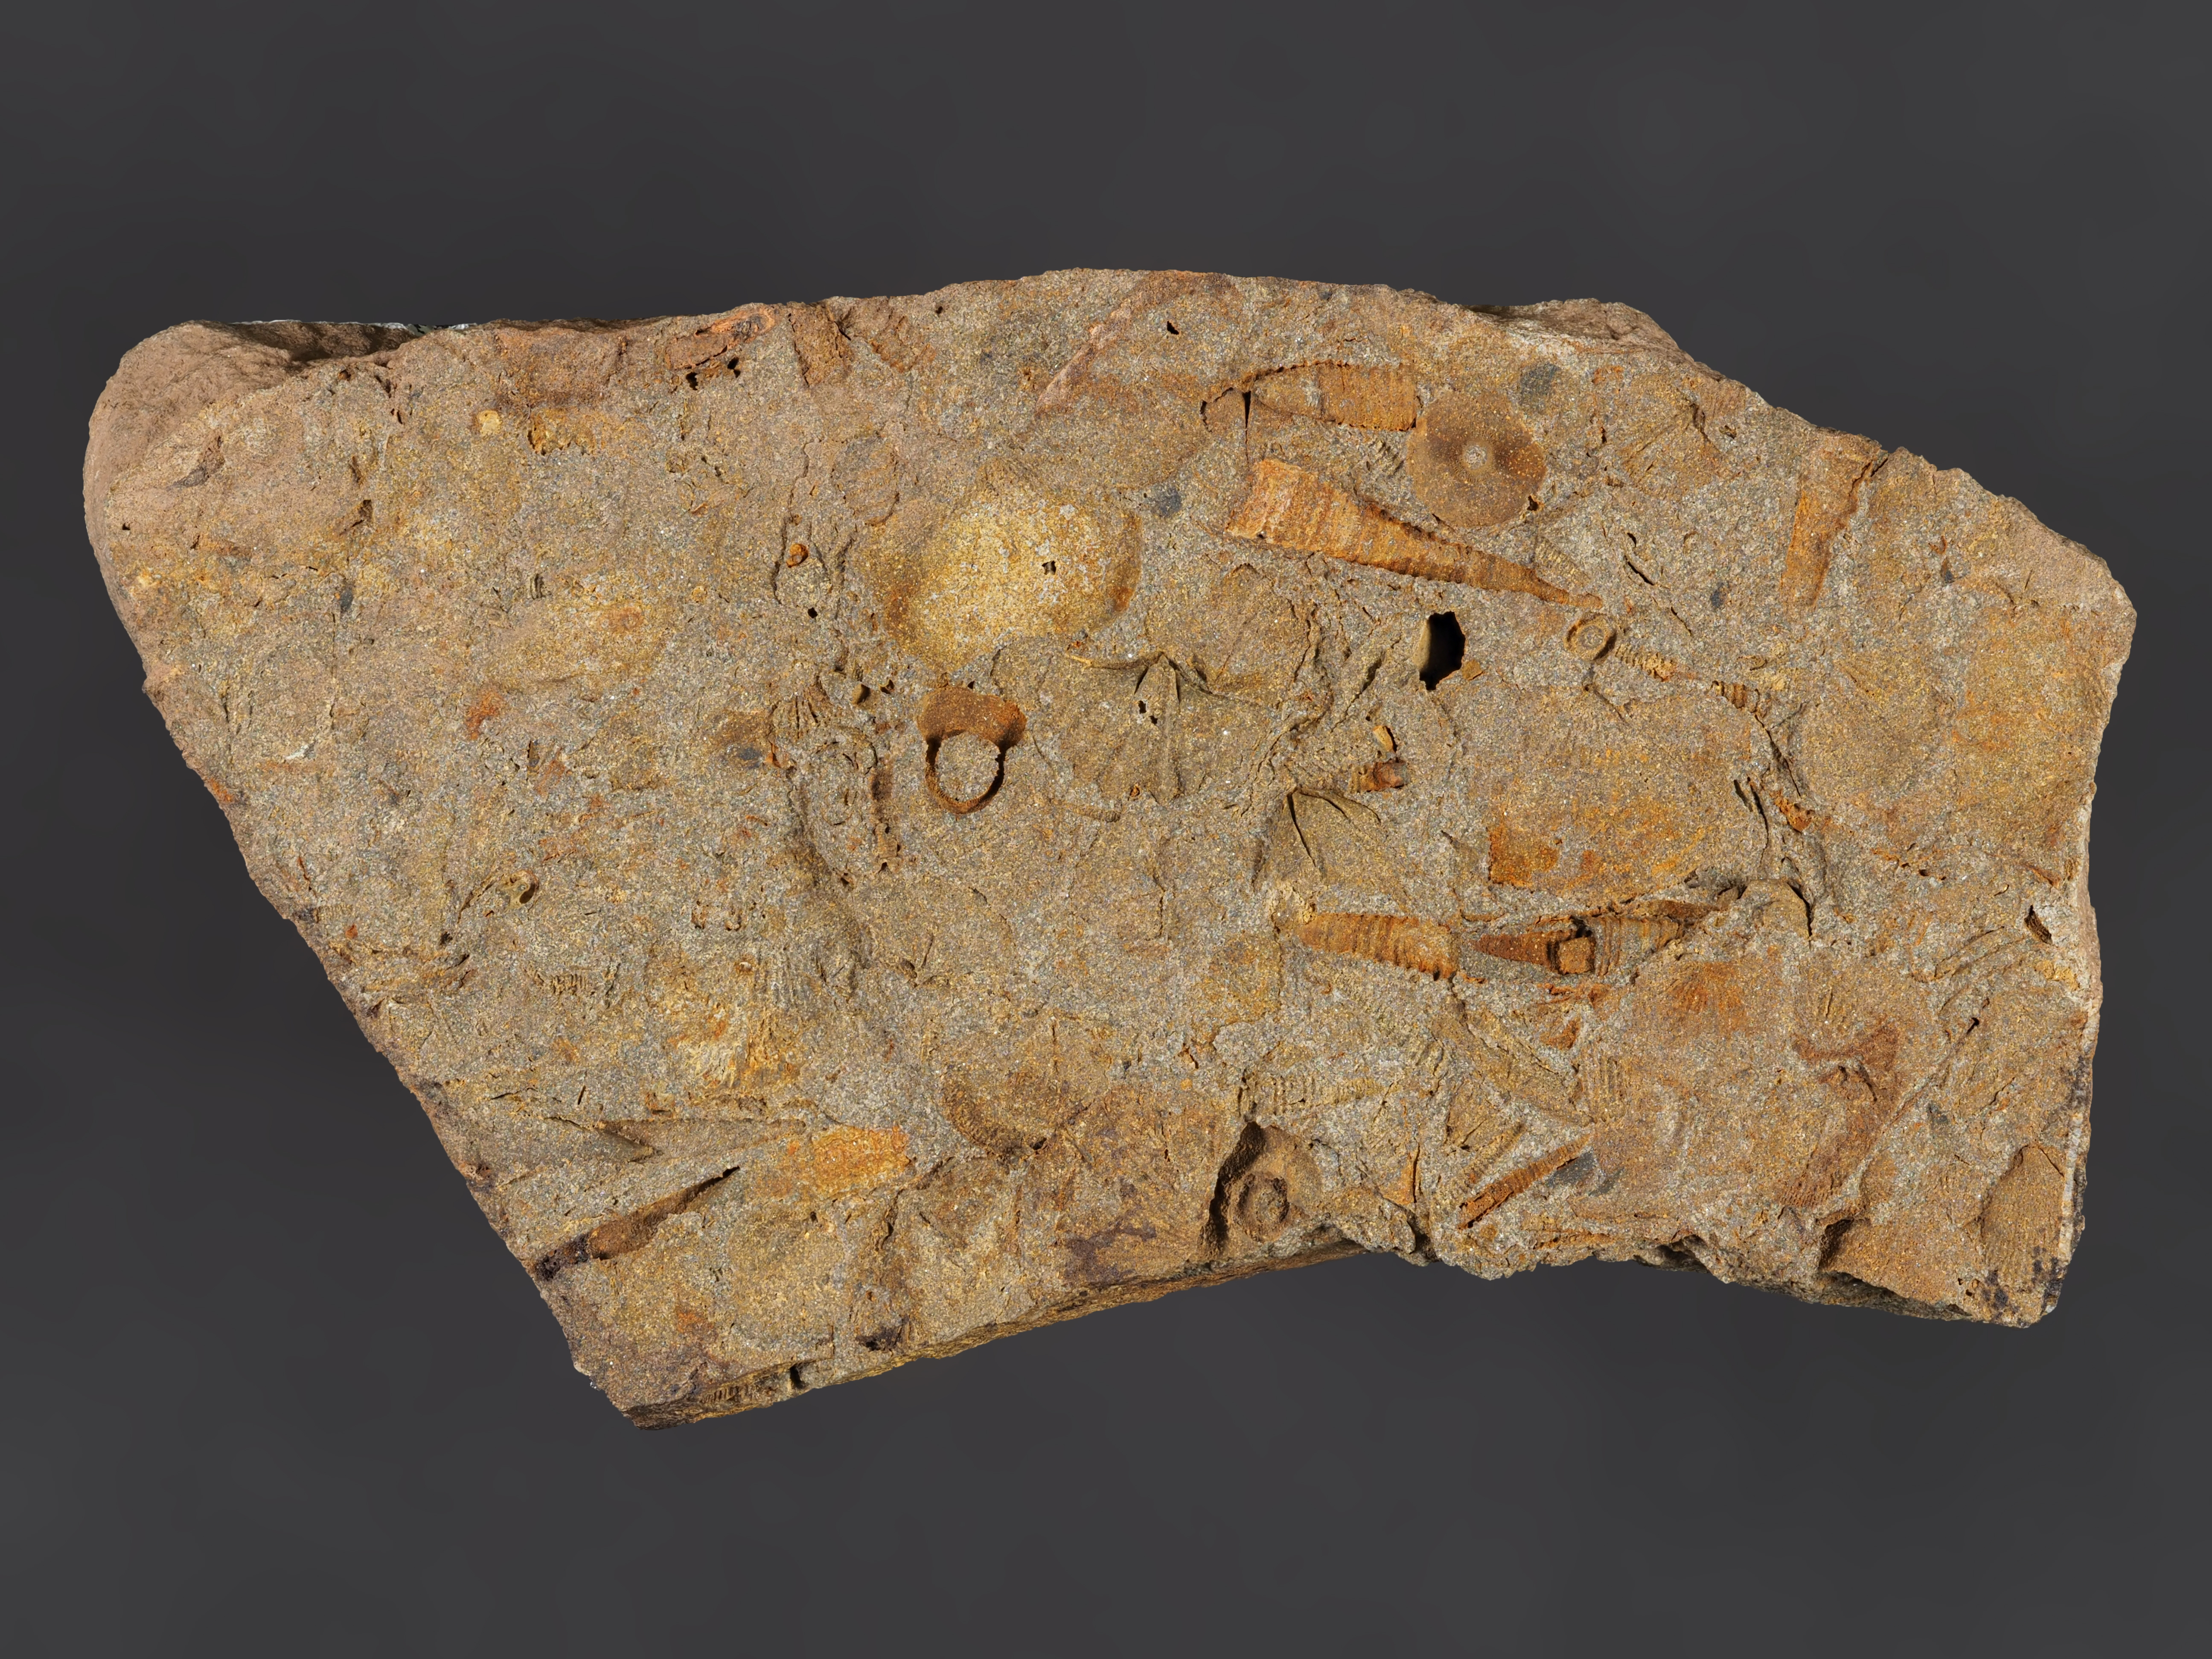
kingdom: Animalia
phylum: Brachiopoda
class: Rhynchonellata
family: Hysterolitidae
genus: Arduspirifer
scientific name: Arduspirifer
